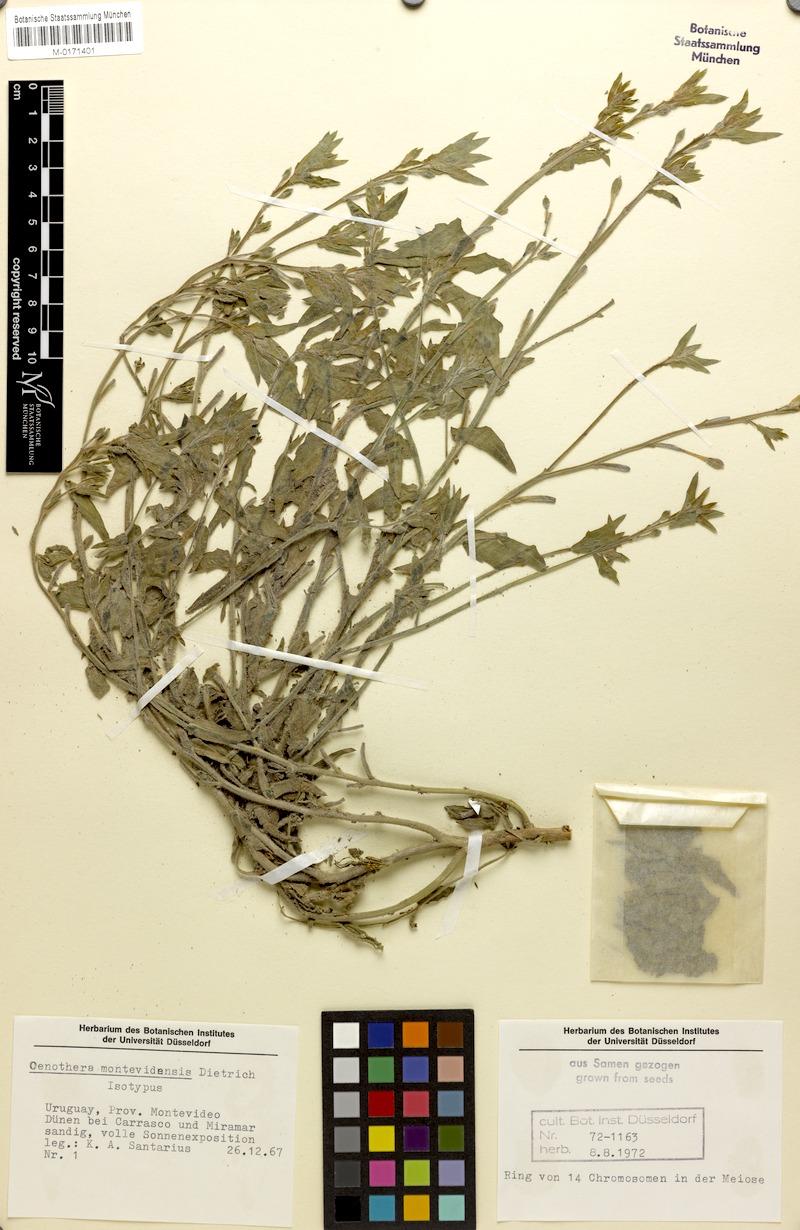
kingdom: Plantae
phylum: Tracheophyta
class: Magnoliopsida
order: Myrtales
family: Onagraceae
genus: Oenothera
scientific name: Oenothera montevidensis
